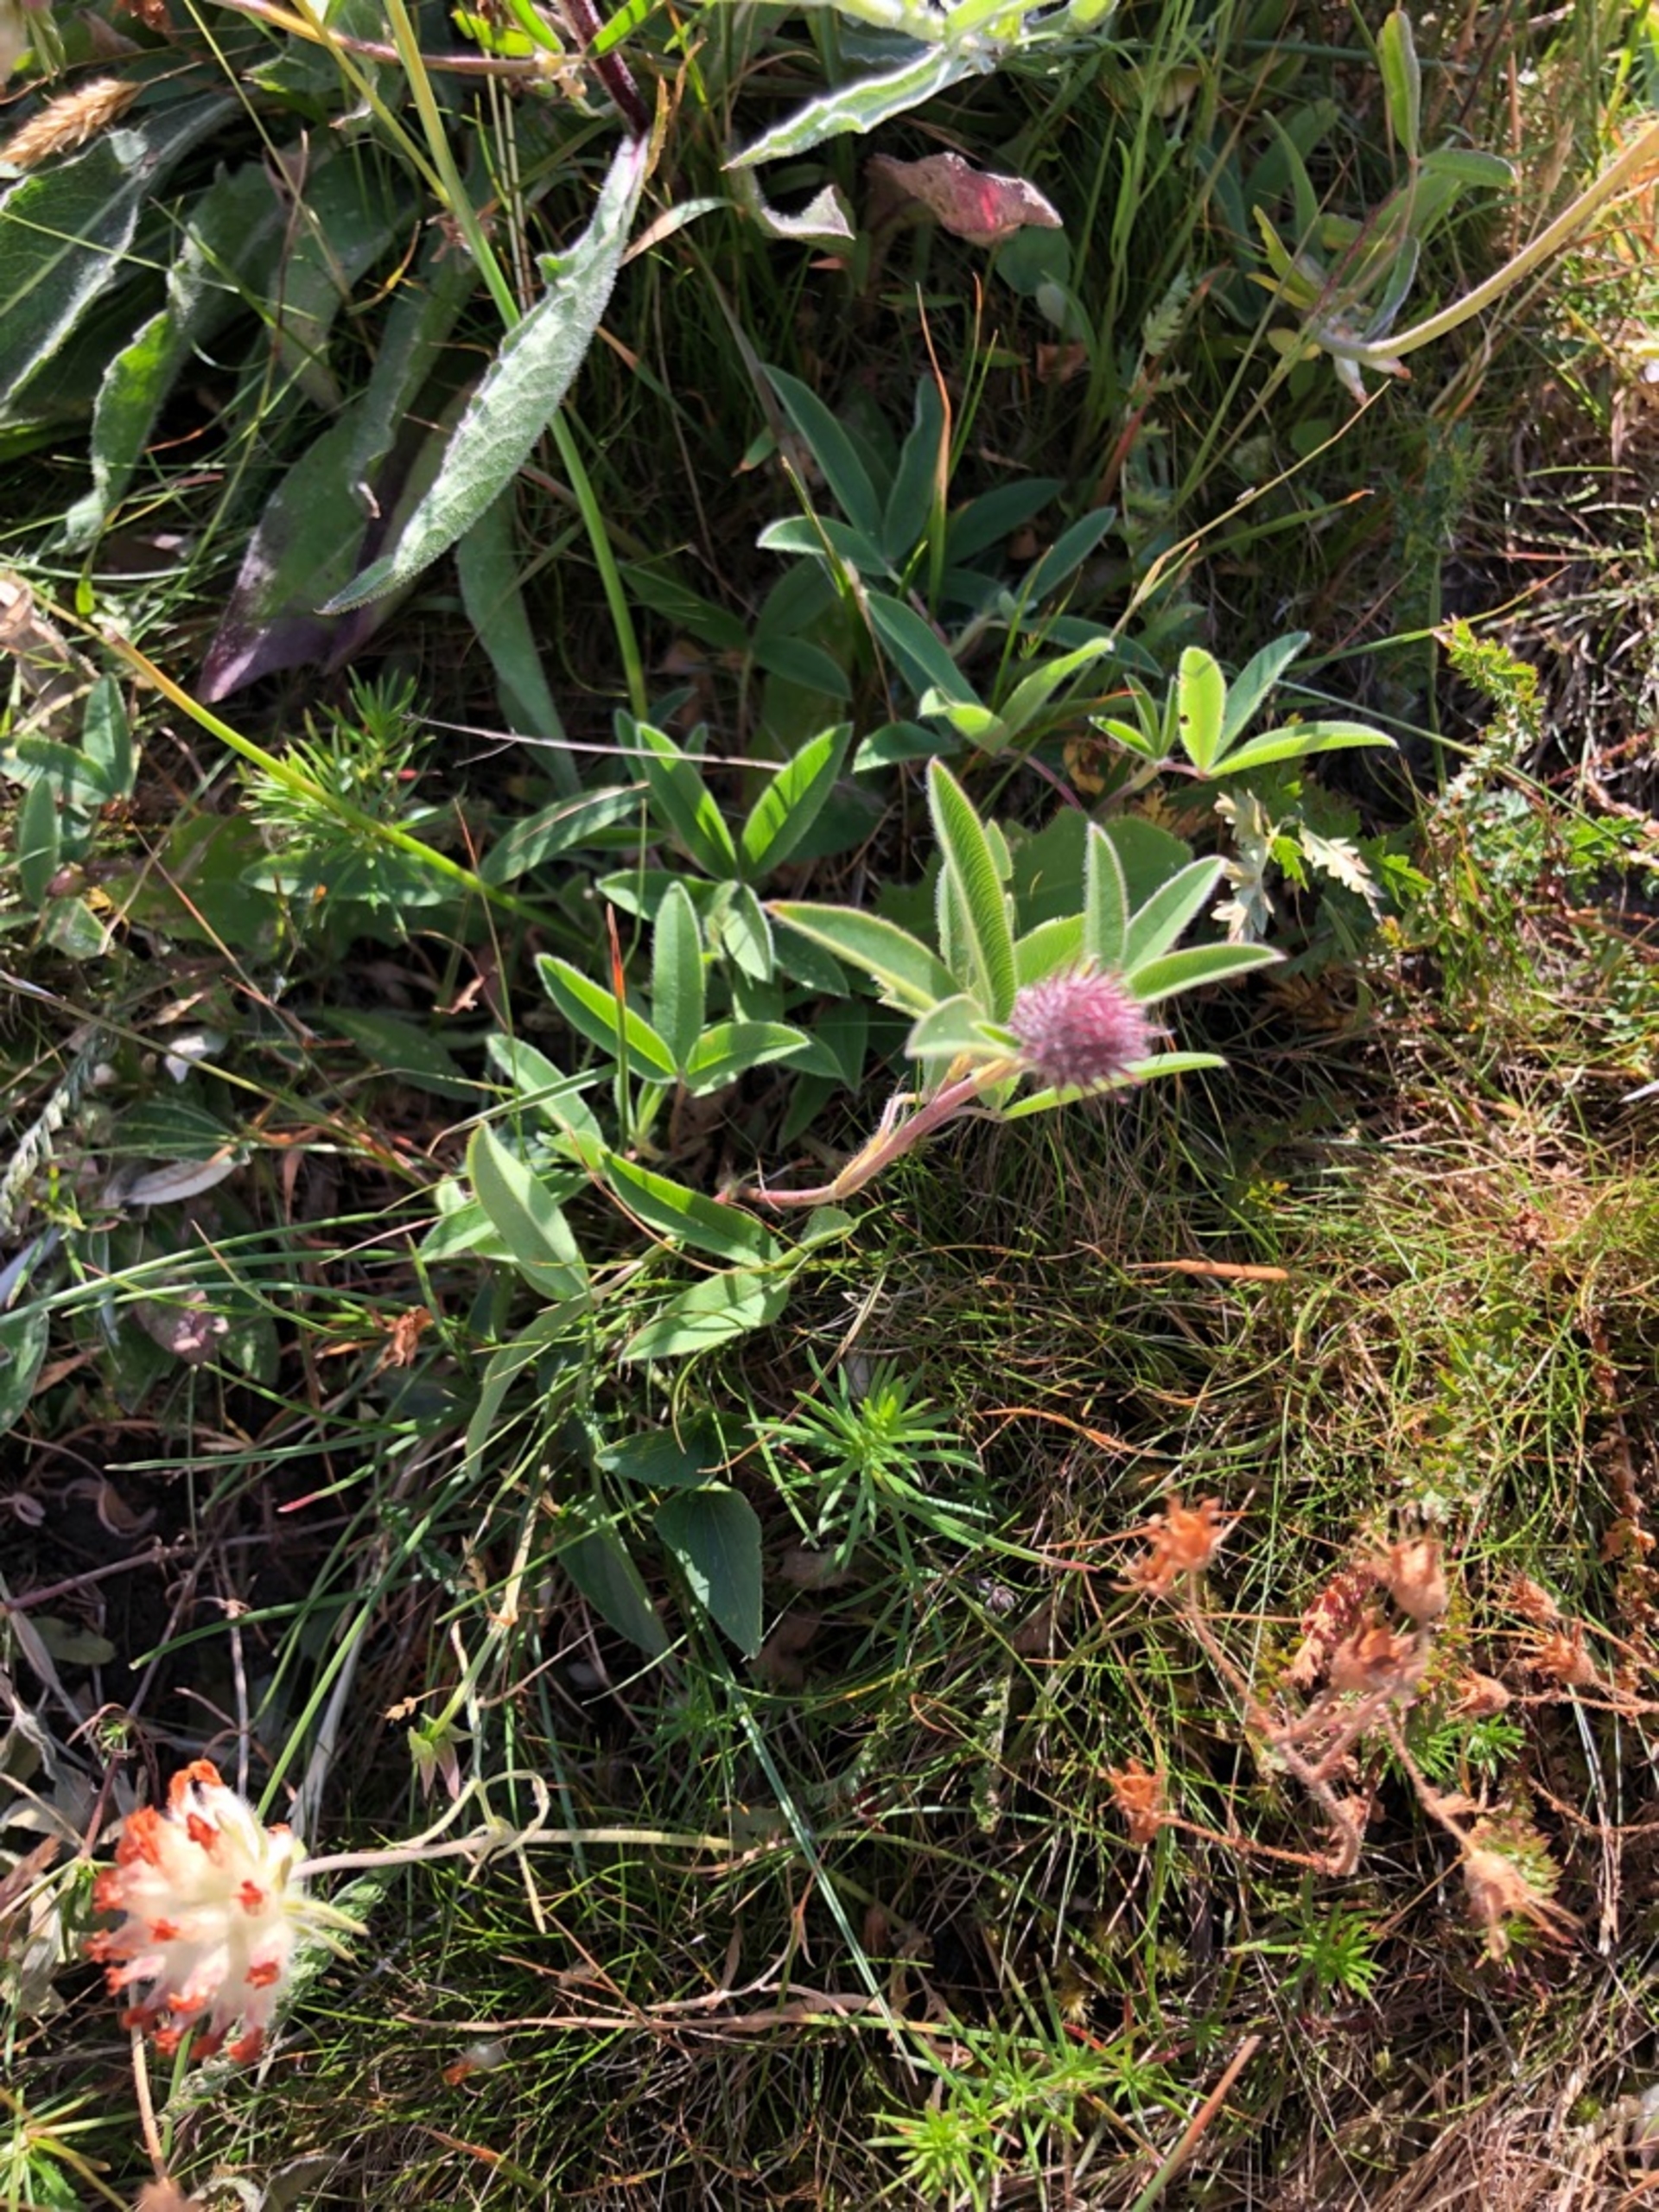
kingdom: Plantae
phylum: Tracheophyta
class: Magnoliopsida
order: Fabales
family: Fabaceae
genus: Trifolium
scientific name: Trifolium alpestre
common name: Skov-kløver
